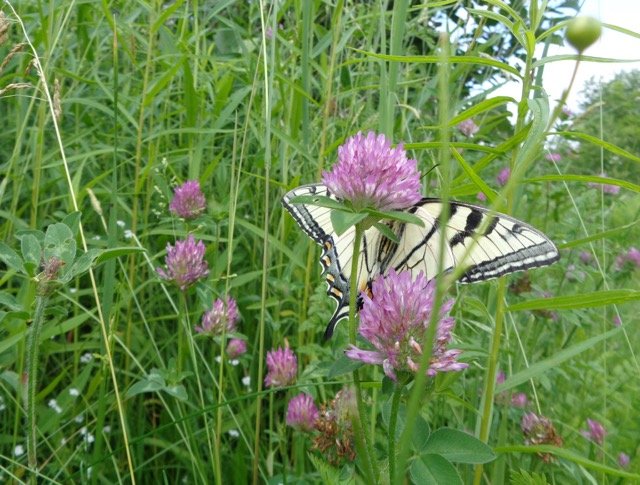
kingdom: Animalia
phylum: Arthropoda
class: Insecta
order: Lepidoptera
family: Papilionidae
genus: Pterourus
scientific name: Pterourus canadensis
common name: Canadian Tiger Swallowtail
